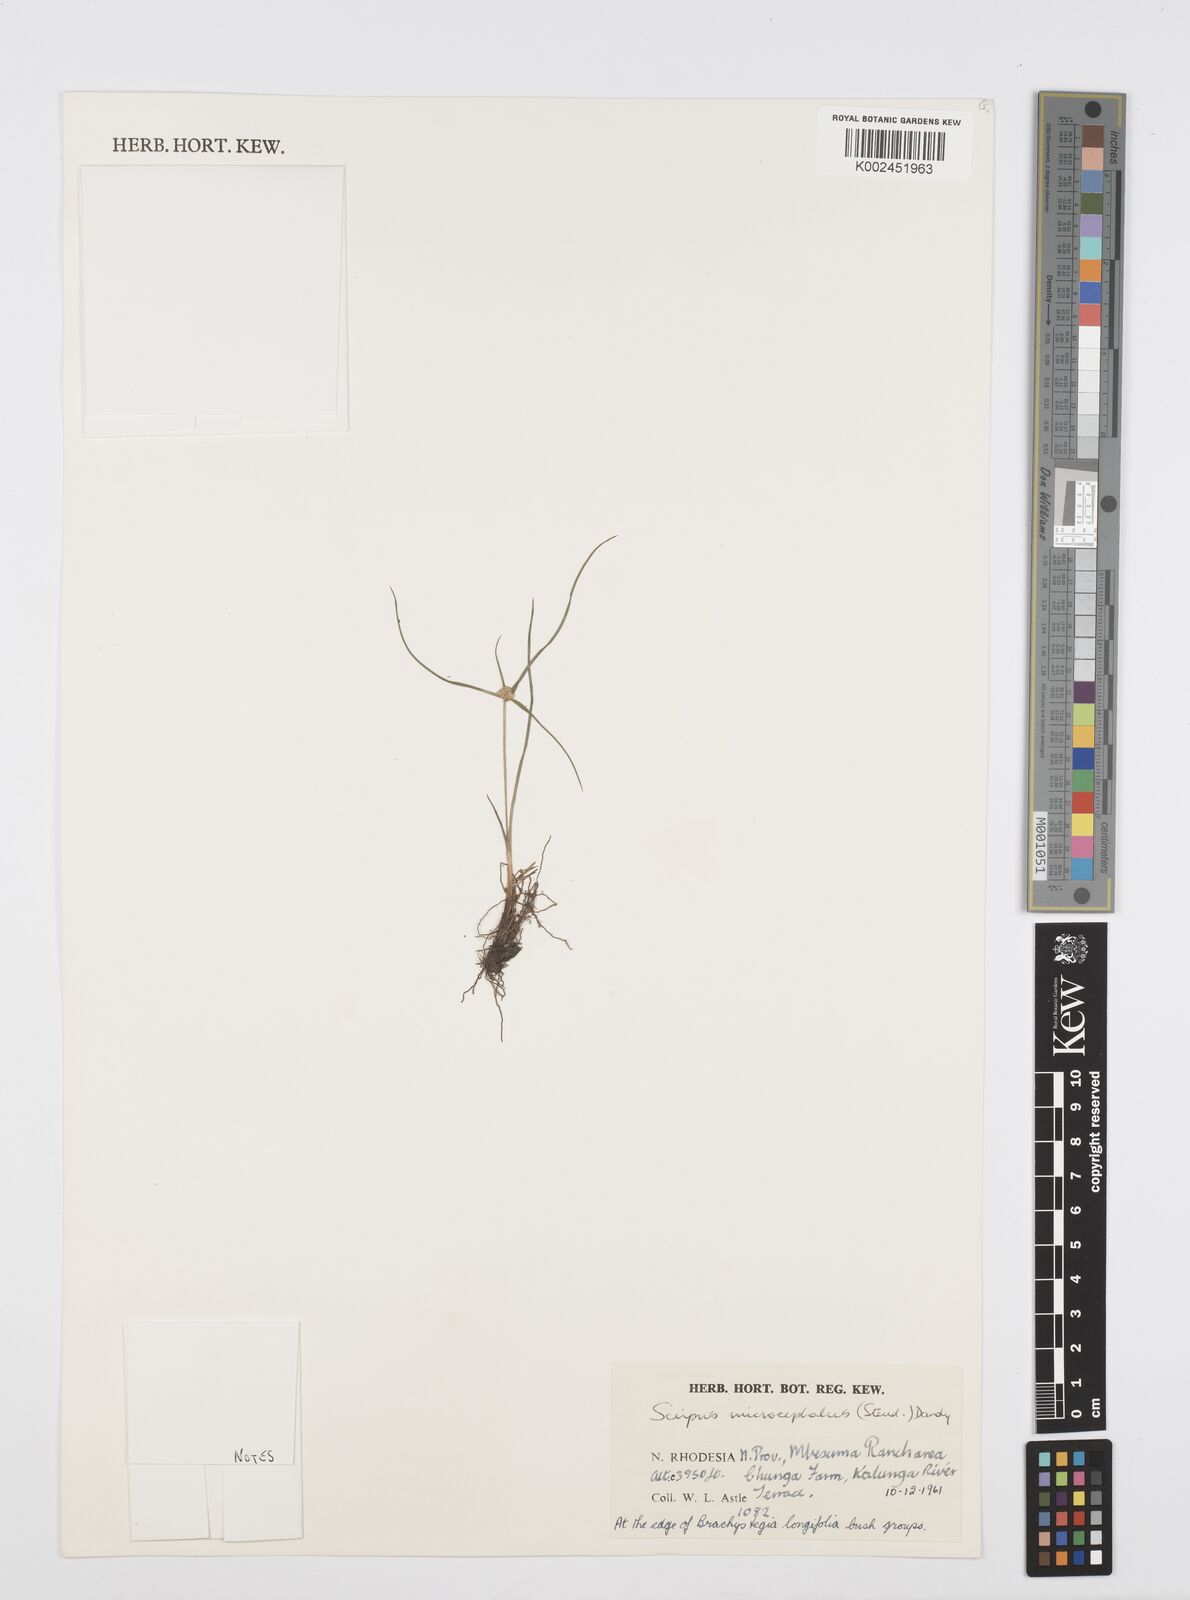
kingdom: Plantae
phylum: Tracheophyta
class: Liliopsida
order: Poales
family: Cyperaceae
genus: Cyperus
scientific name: Cyperus microcephalus
